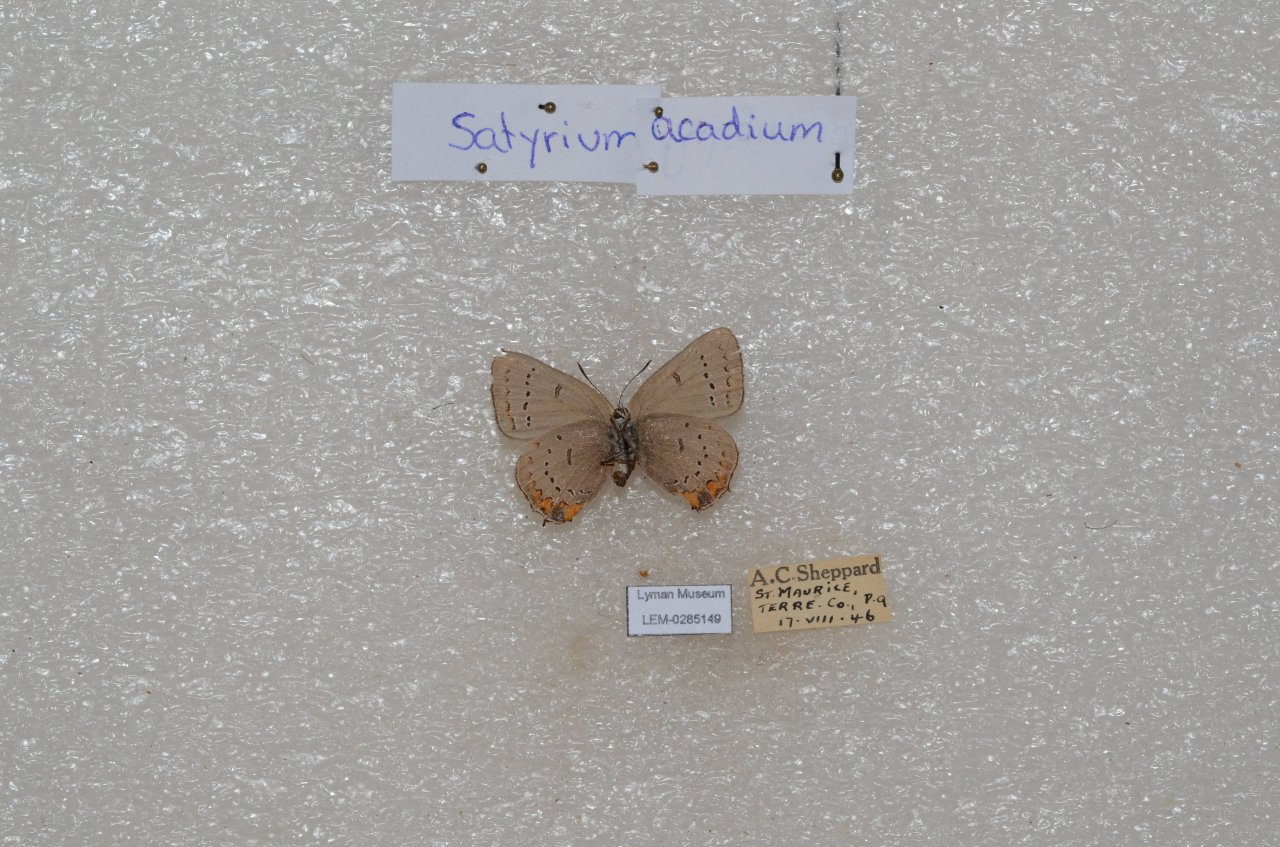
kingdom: Animalia
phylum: Arthropoda
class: Insecta
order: Lepidoptera
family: Lycaenidae
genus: Strymon
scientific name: Strymon acadica
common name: Acadian Hairstreak
